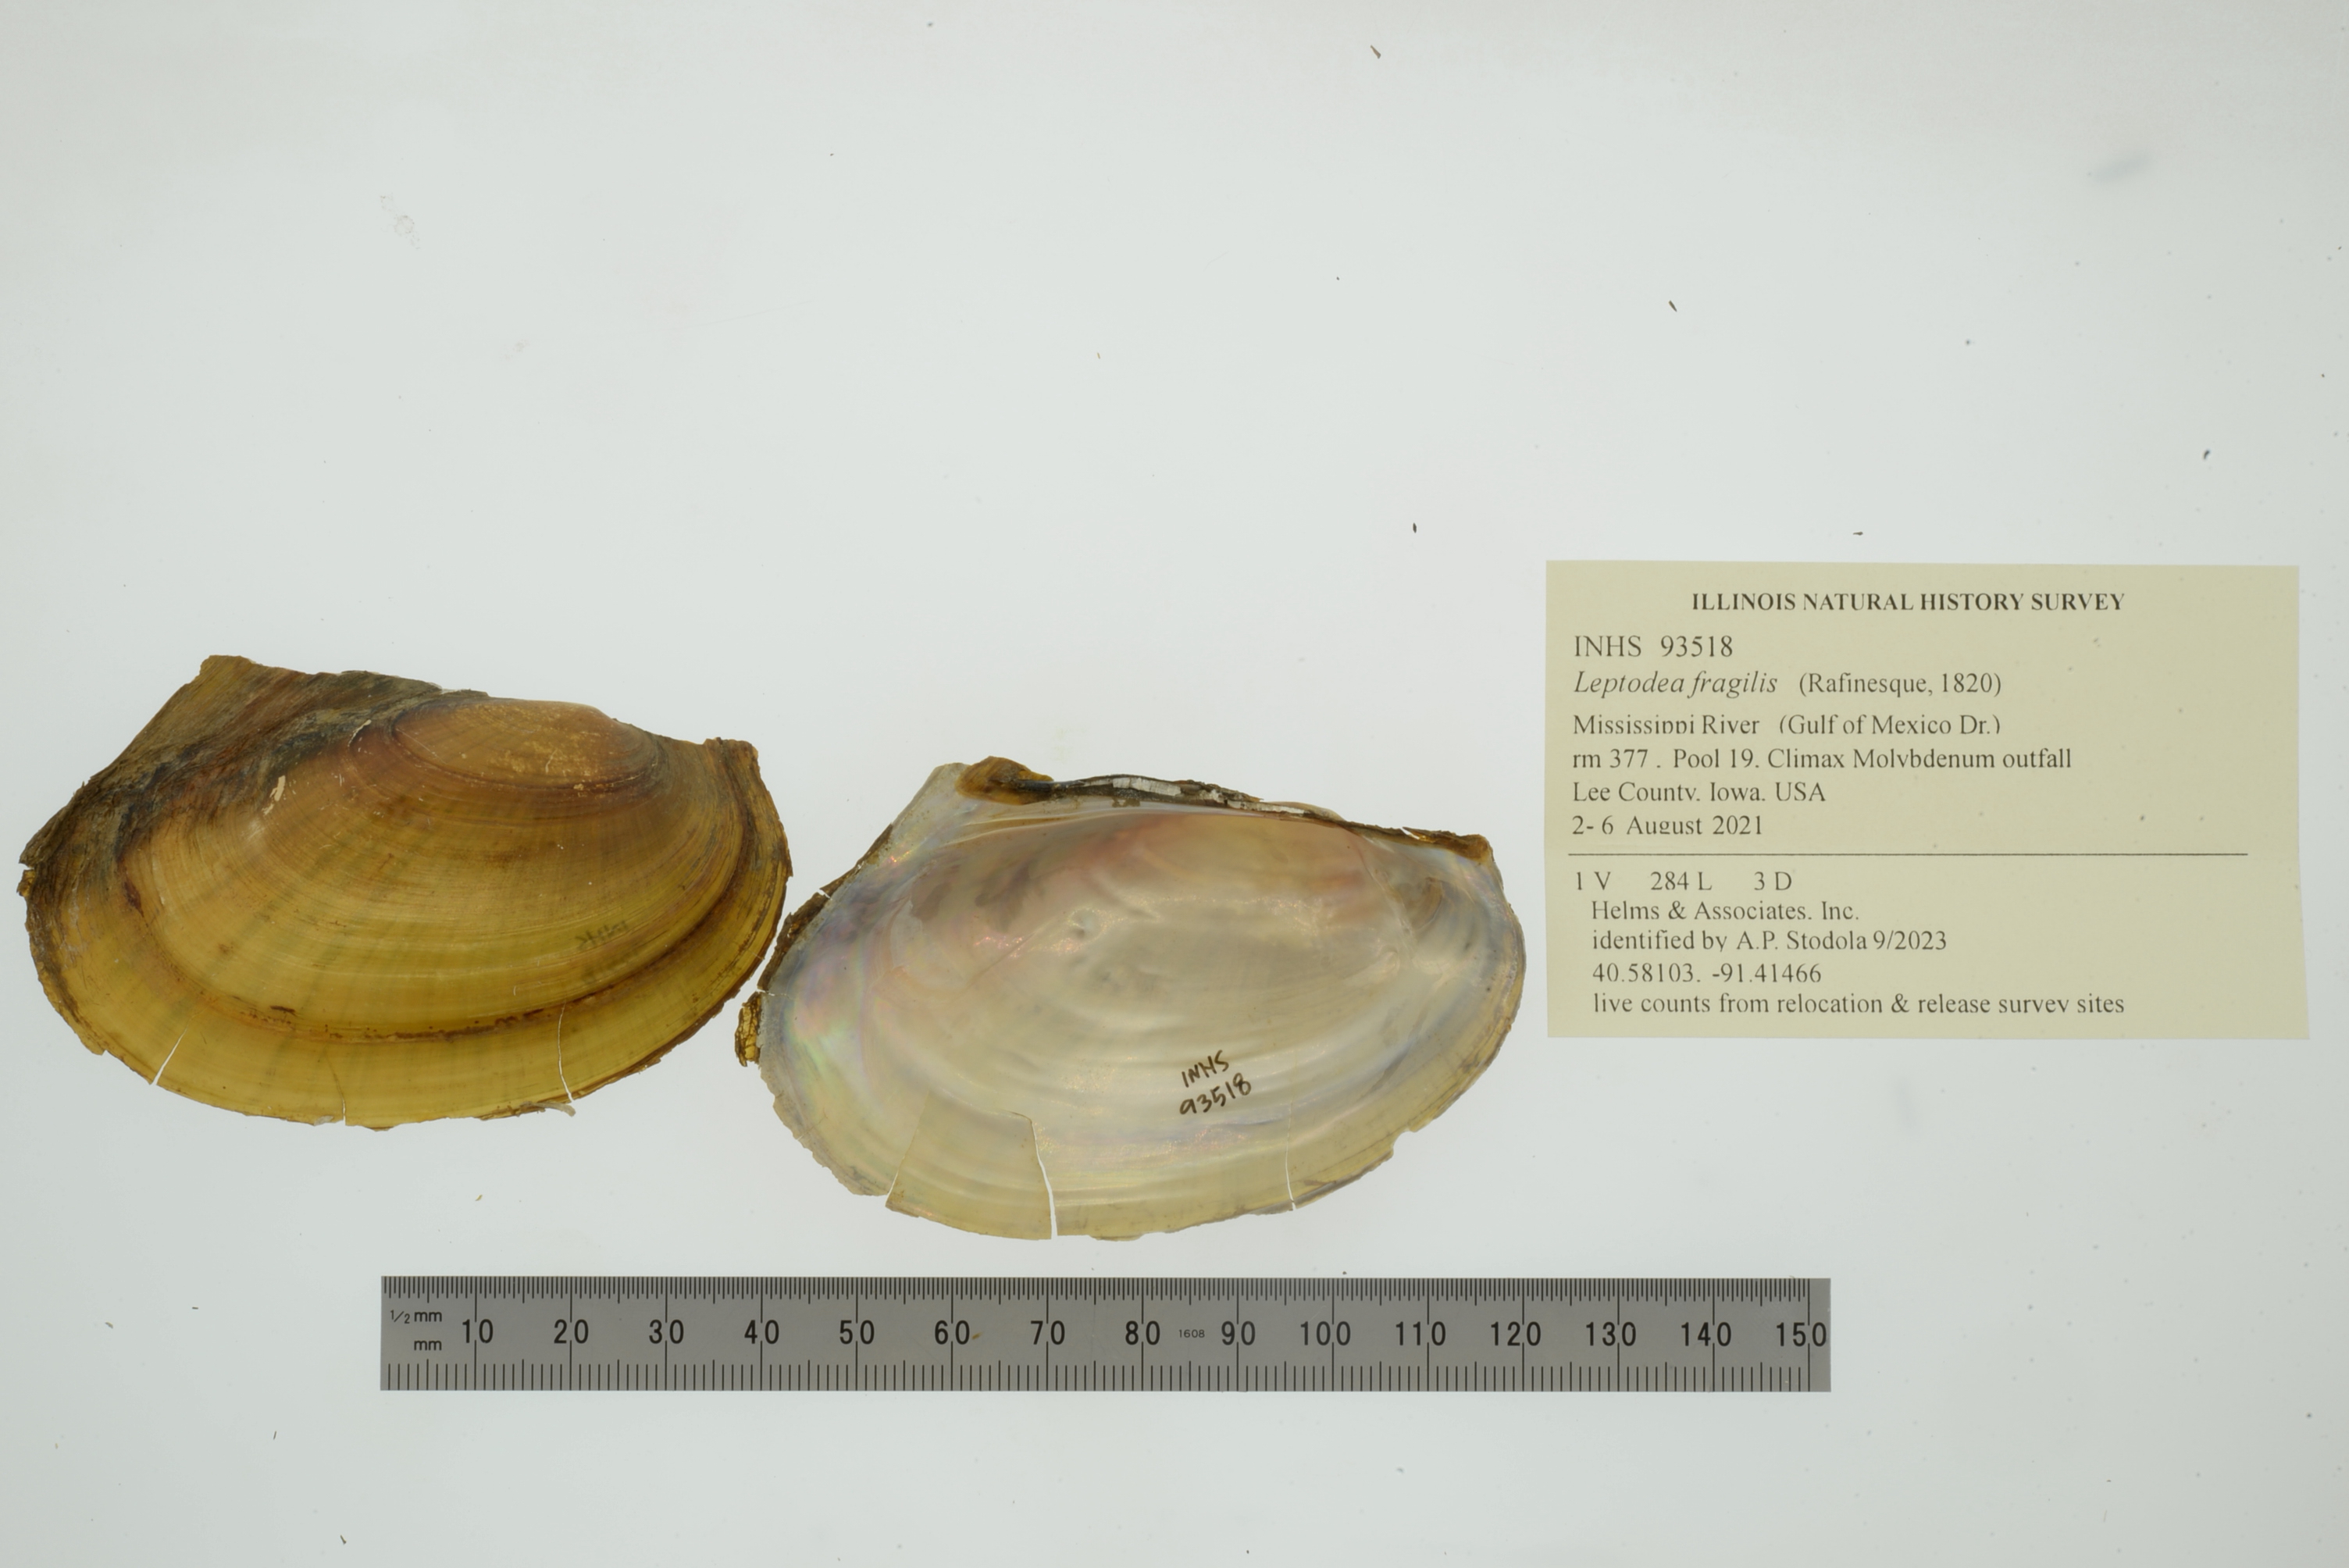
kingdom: Animalia
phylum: Mollusca
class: Bivalvia
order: Unionida
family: Unionidae
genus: Potamilus
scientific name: Potamilus fragilis
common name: Fragile papershell
